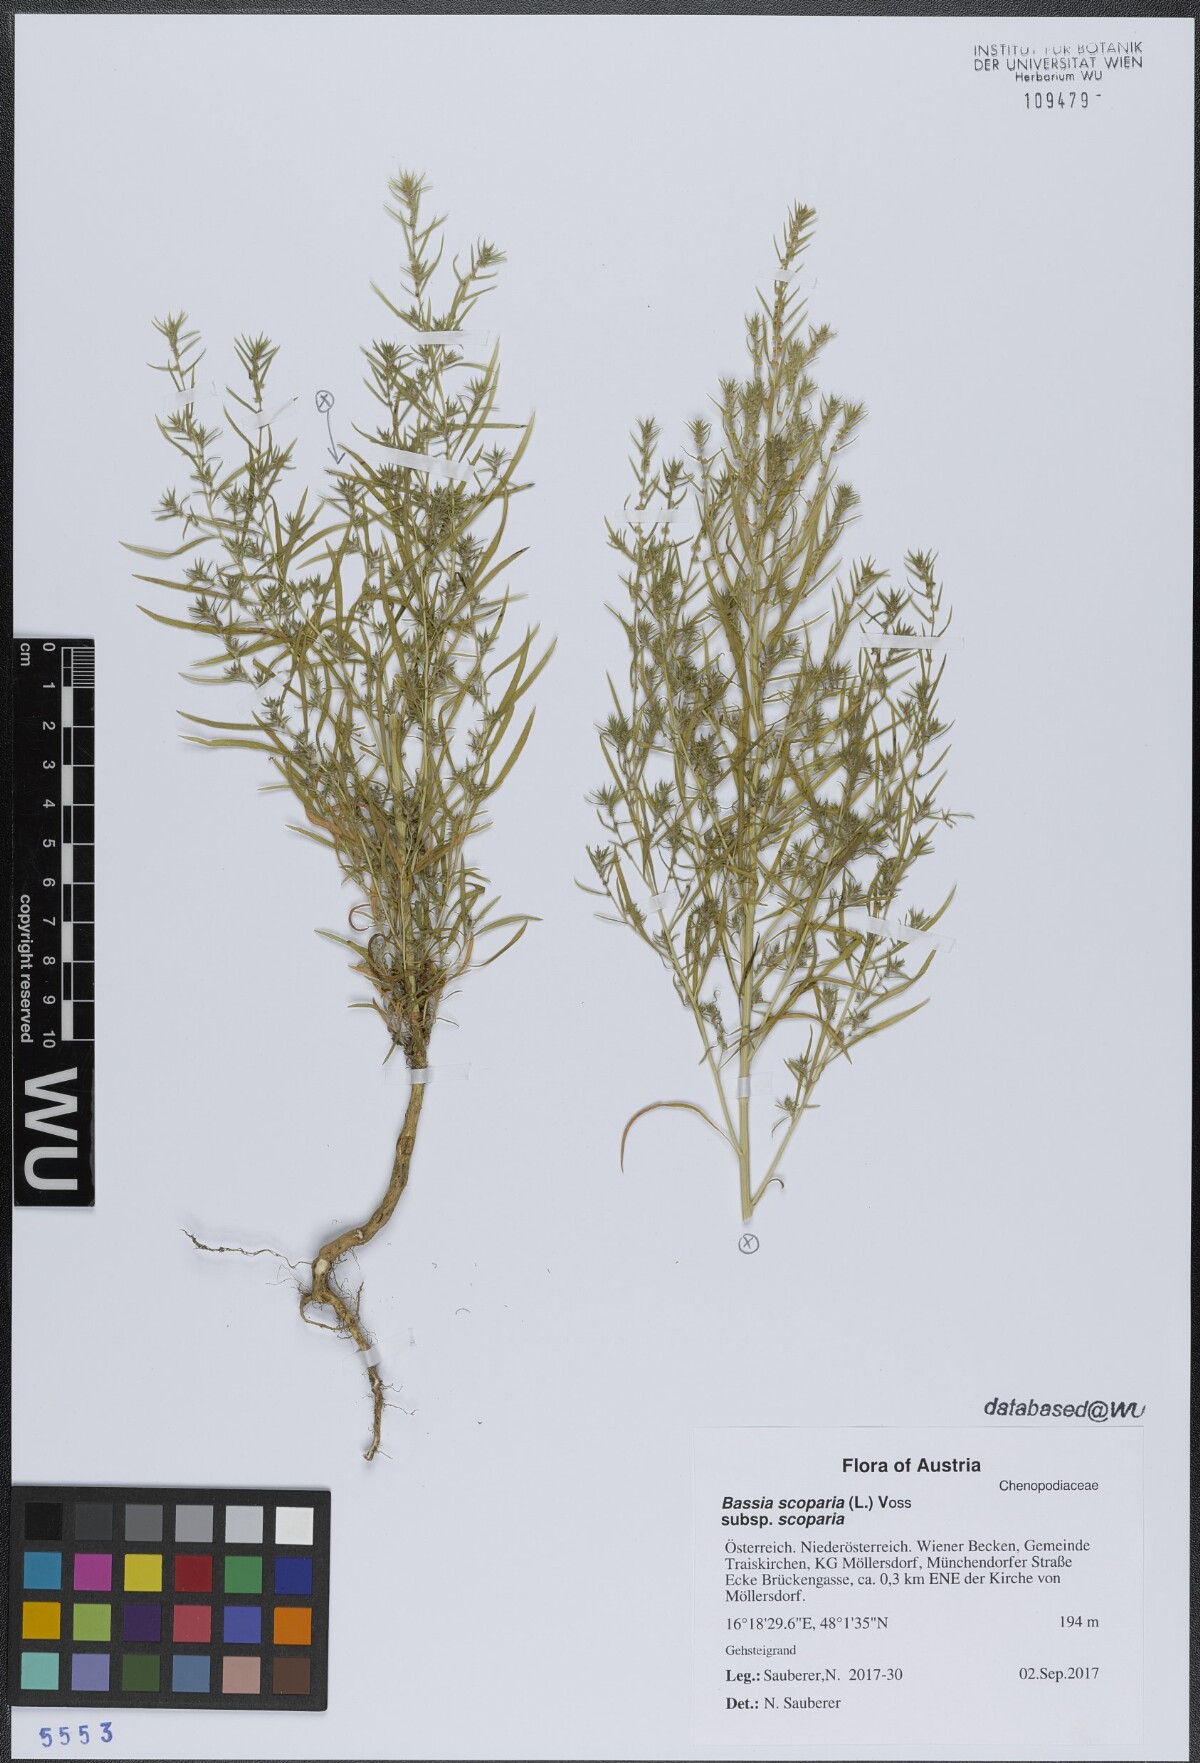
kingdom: Plantae
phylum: Tracheophyta
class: Magnoliopsida
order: Caryophyllales
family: Amaranthaceae
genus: Bassia
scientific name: Bassia scoparia
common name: Belvedere
